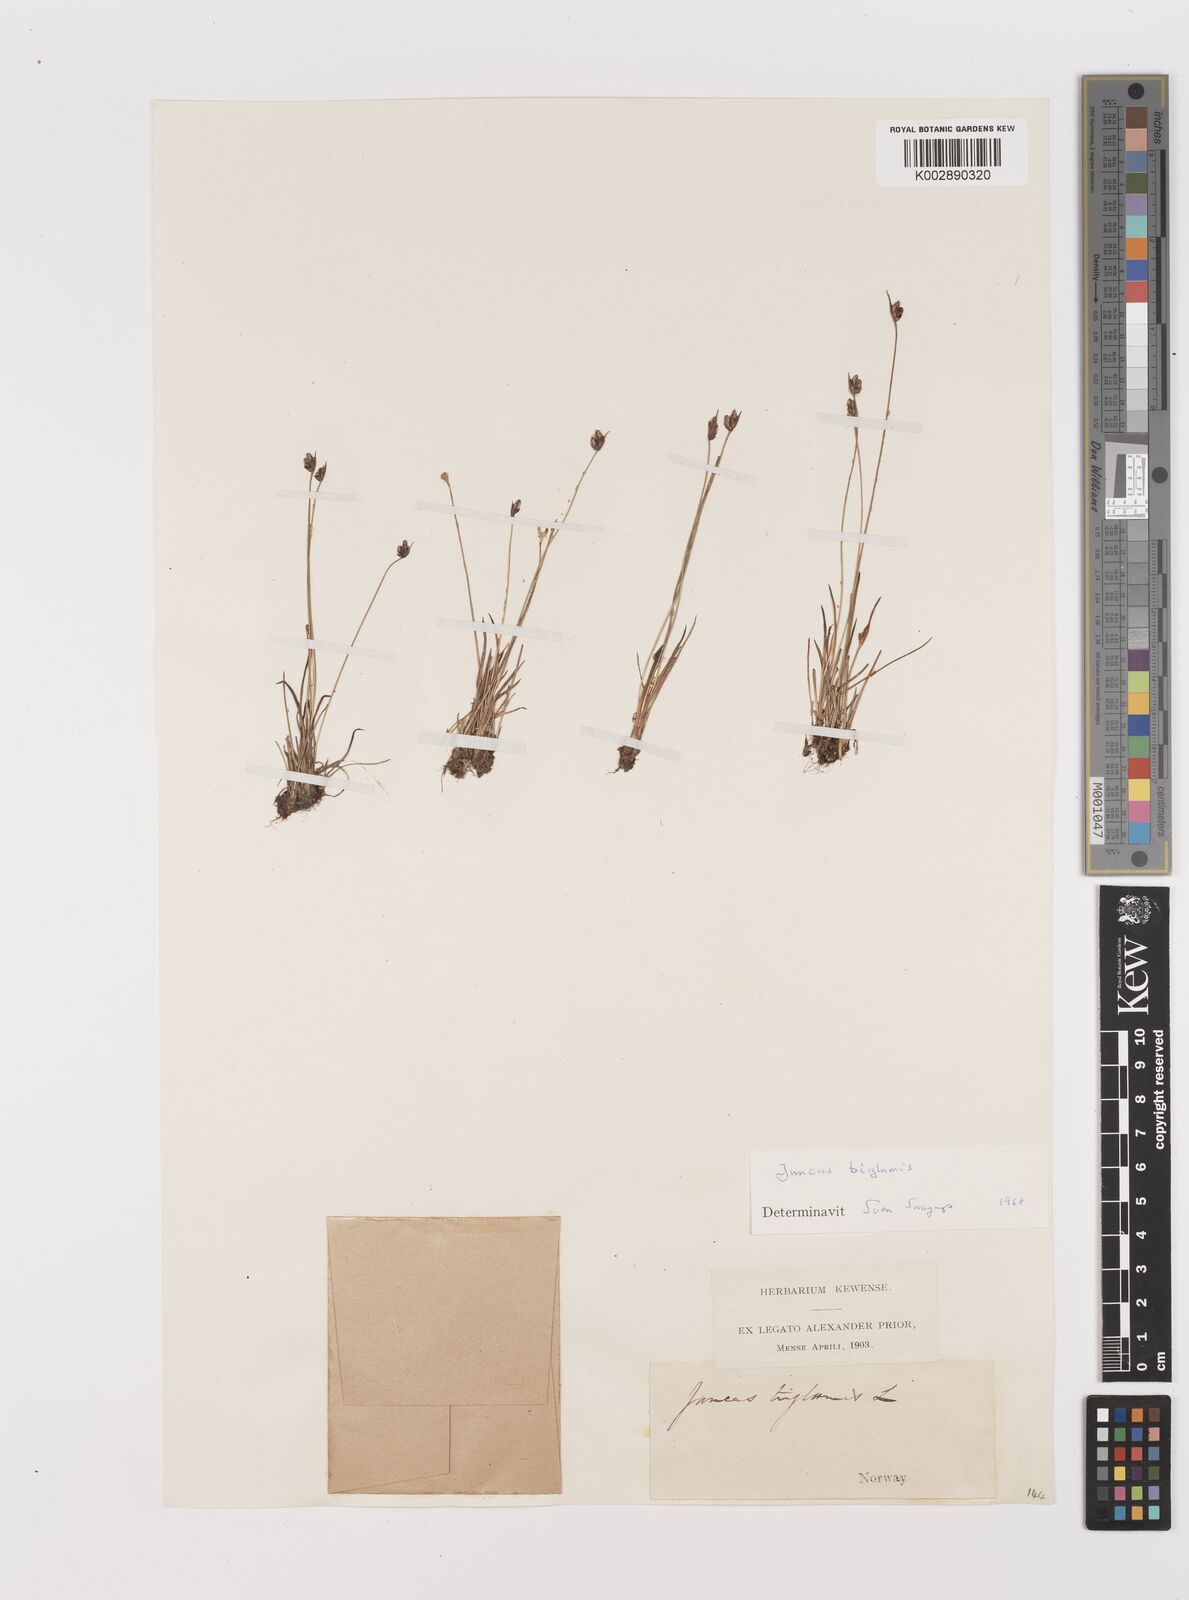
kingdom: Plantae
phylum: Tracheophyta
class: Liliopsida
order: Poales
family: Juncaceae
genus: Juncus
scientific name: Juncus biglumis
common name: Two-flowered rush
